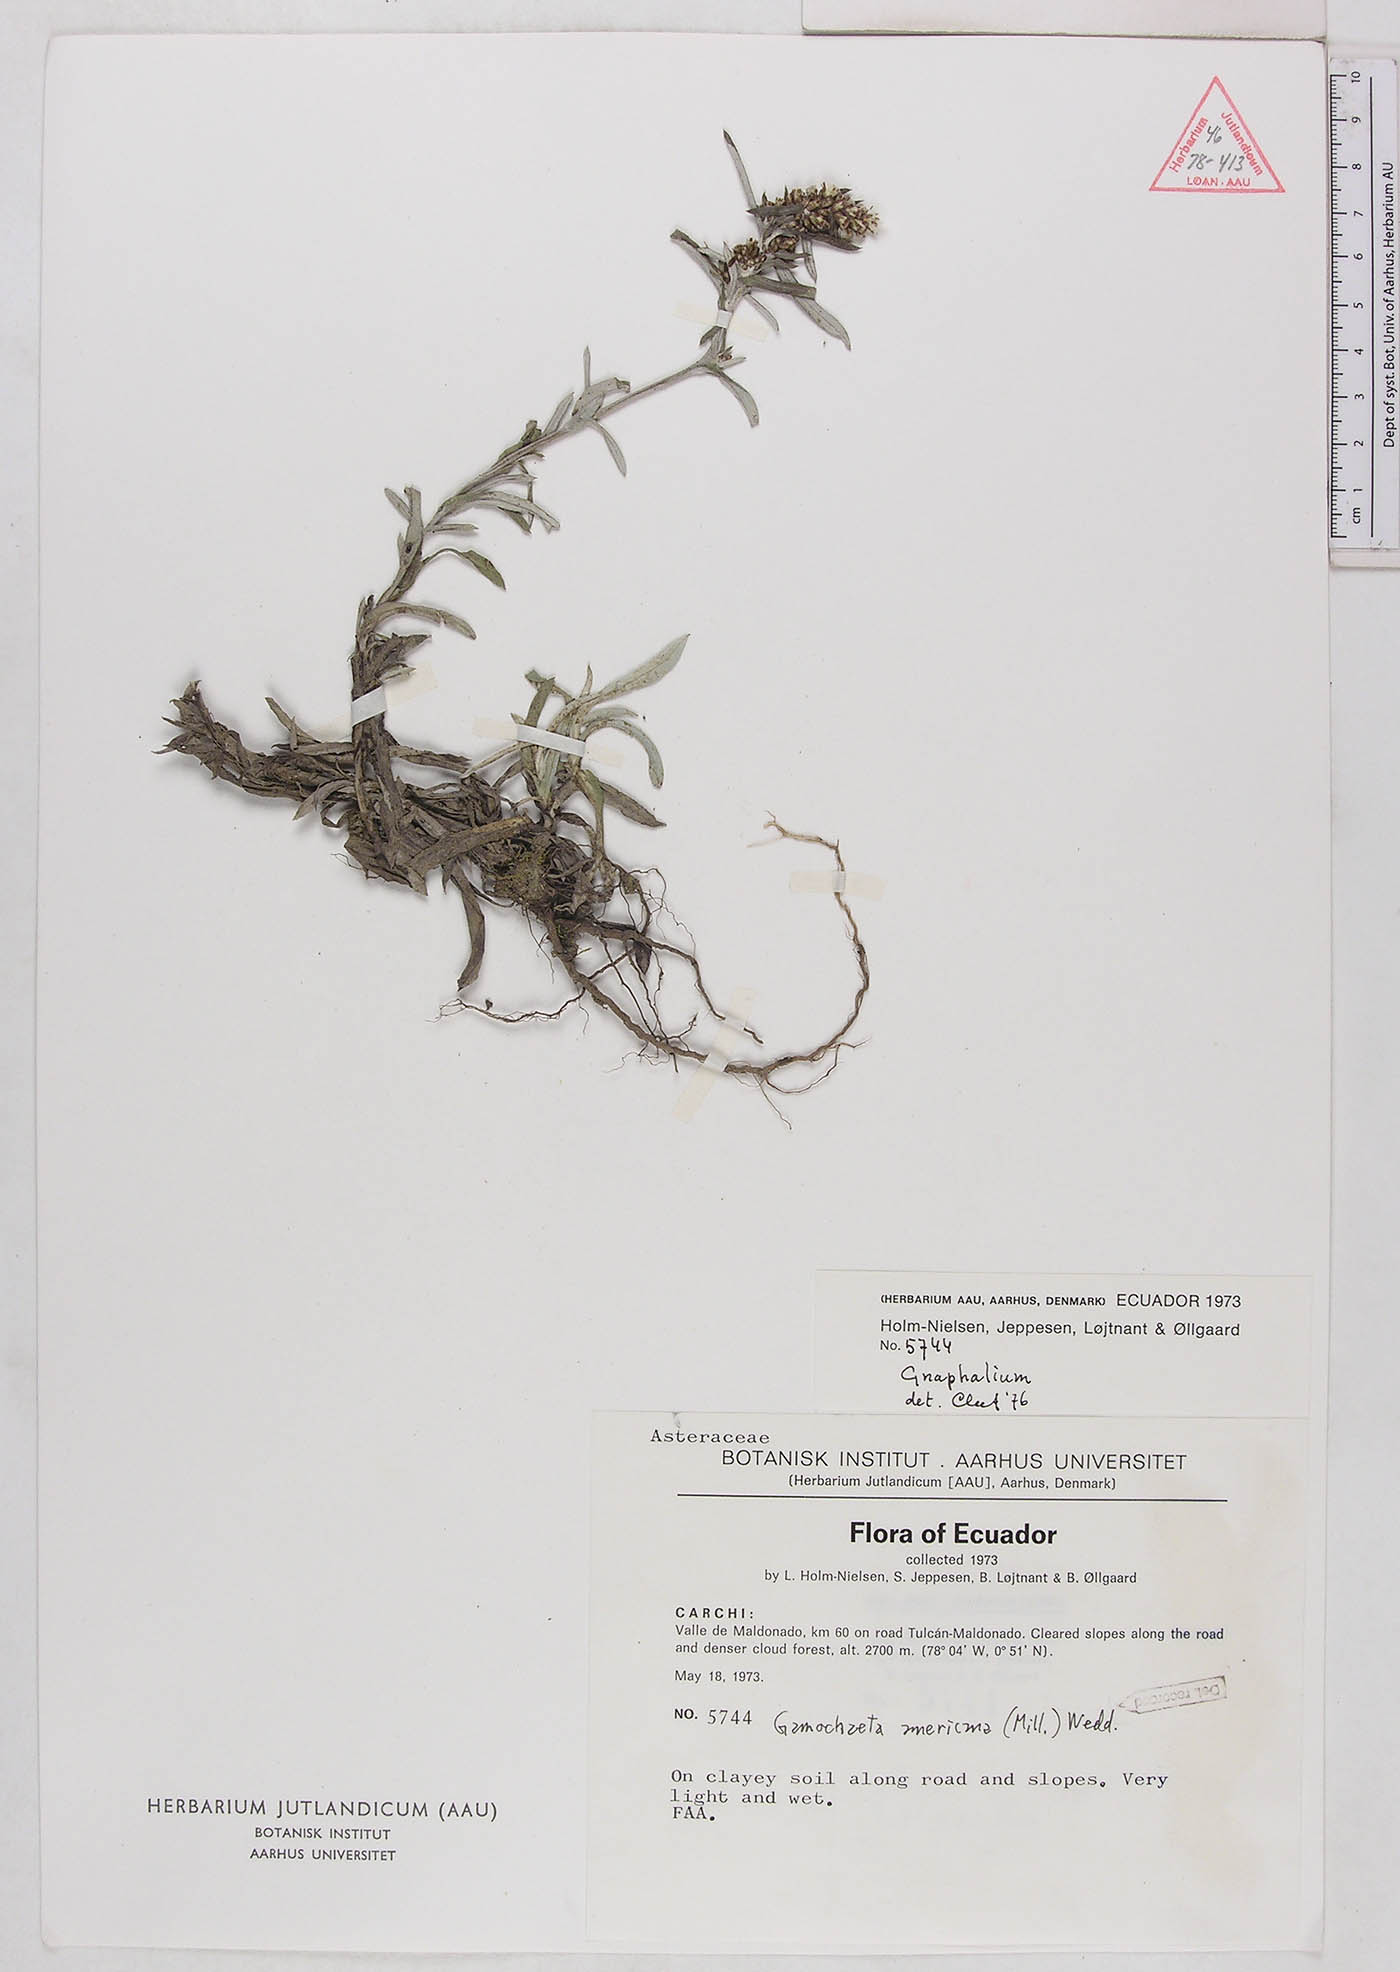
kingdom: Plantae
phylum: Tracheophyta
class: Magnoliopsida
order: Asterales
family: Asteraceae
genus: Gamochaeta
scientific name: Gamochaeta americana
